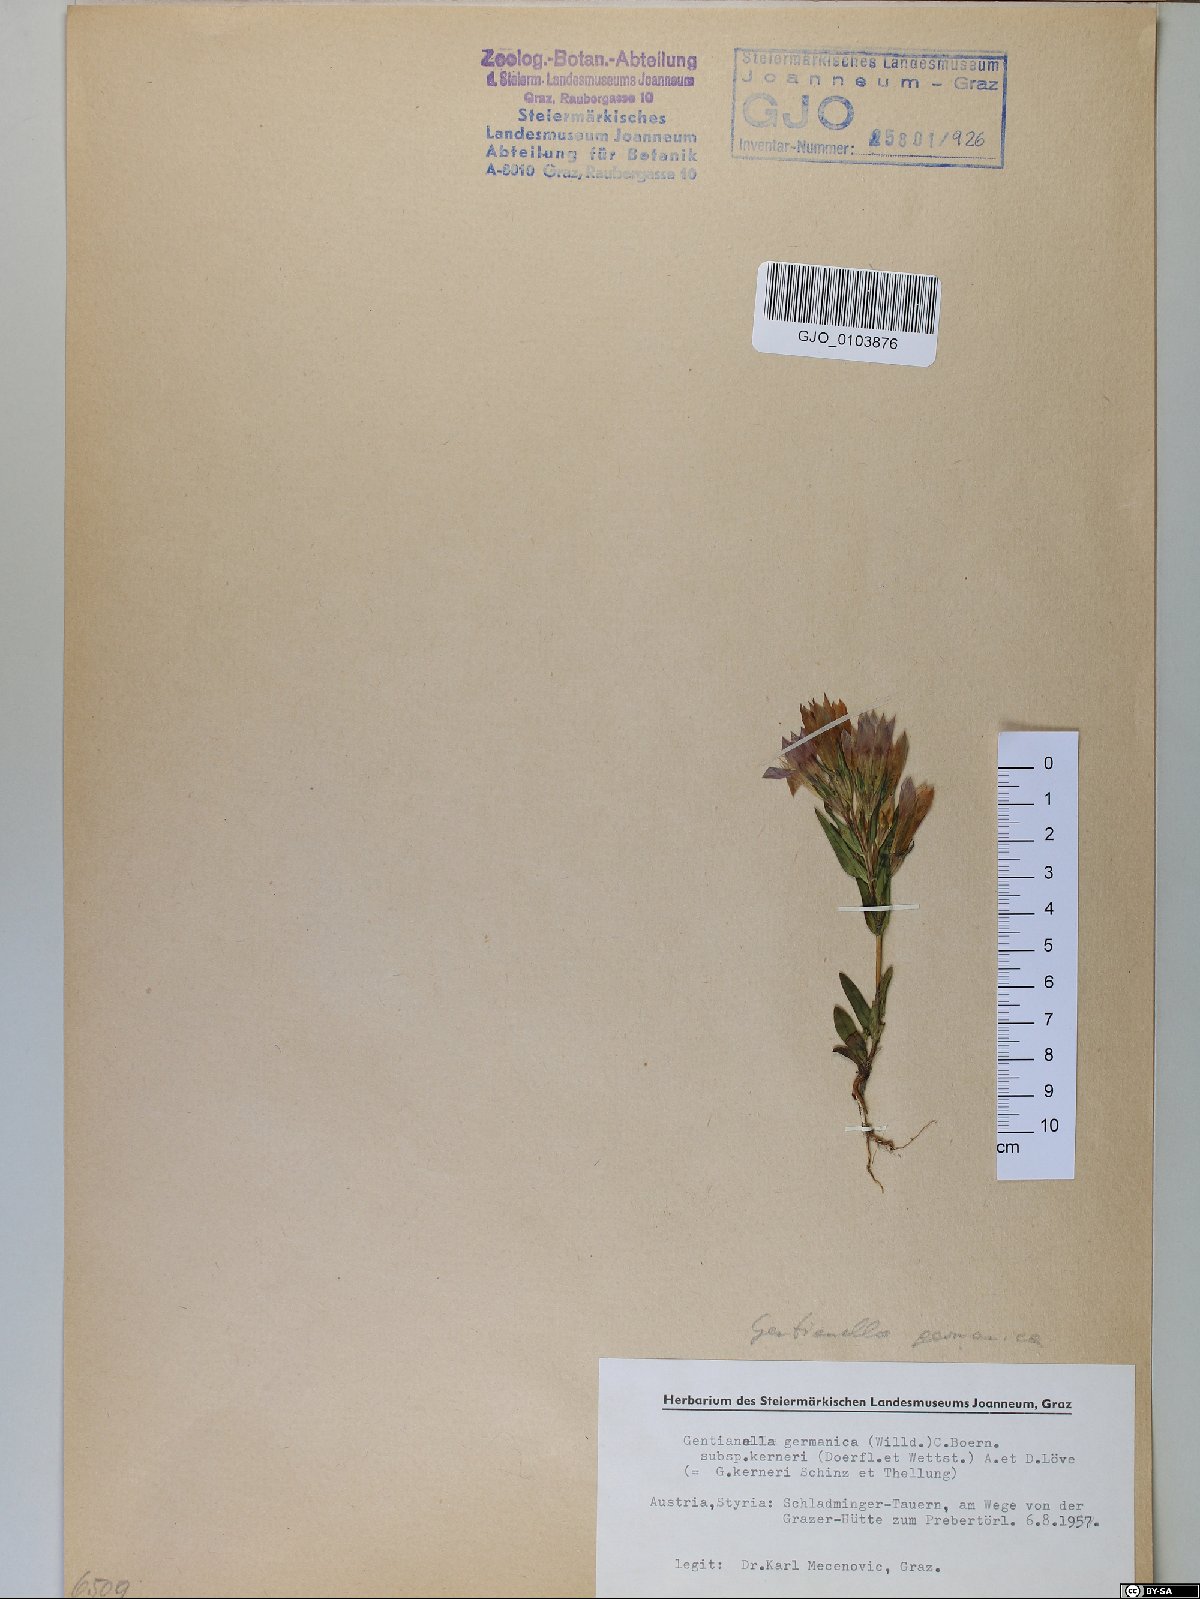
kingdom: Plantae
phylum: Tracheophyta
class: Magnoliopsida
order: Gentianales
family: Gentianaceae
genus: Gentianella
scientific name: Gentianella rhaetica
